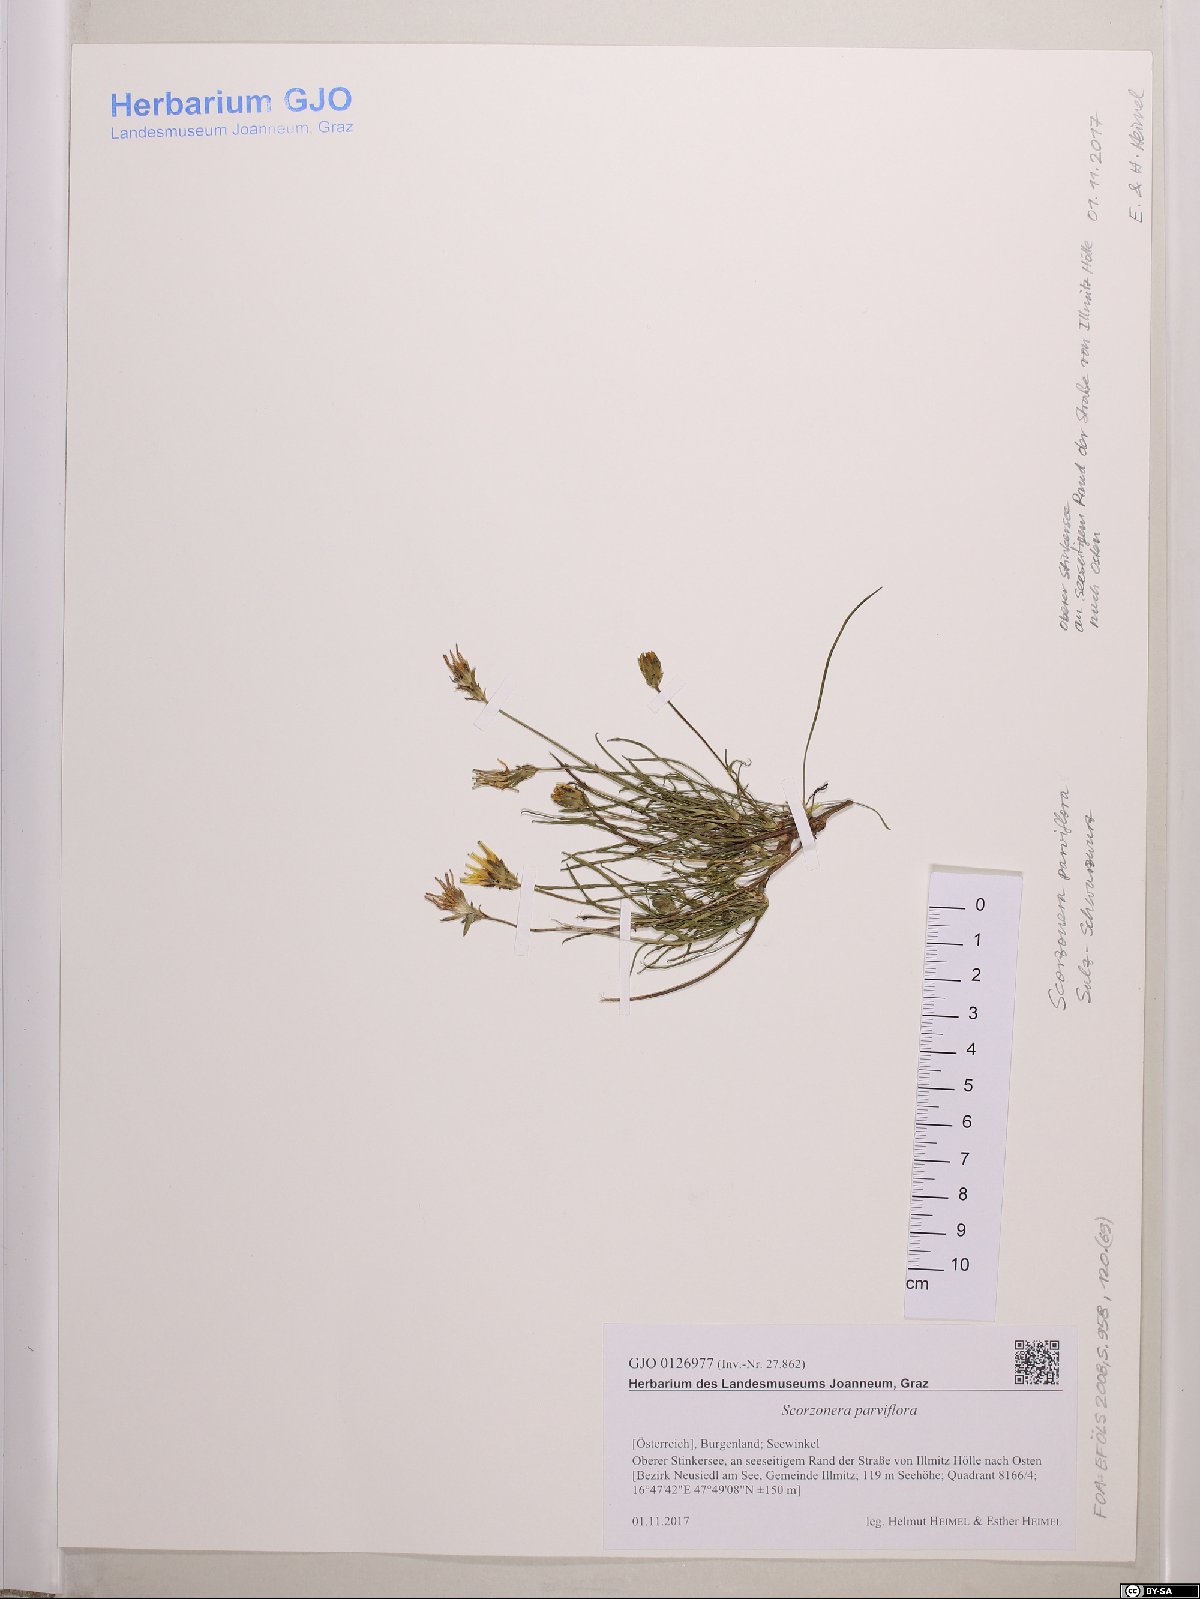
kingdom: Plantae
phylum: Tracheophyta
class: Magnoliopsida
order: Asterales
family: Asteraceae
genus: Scorzonera
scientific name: Scorzonera parviflora
